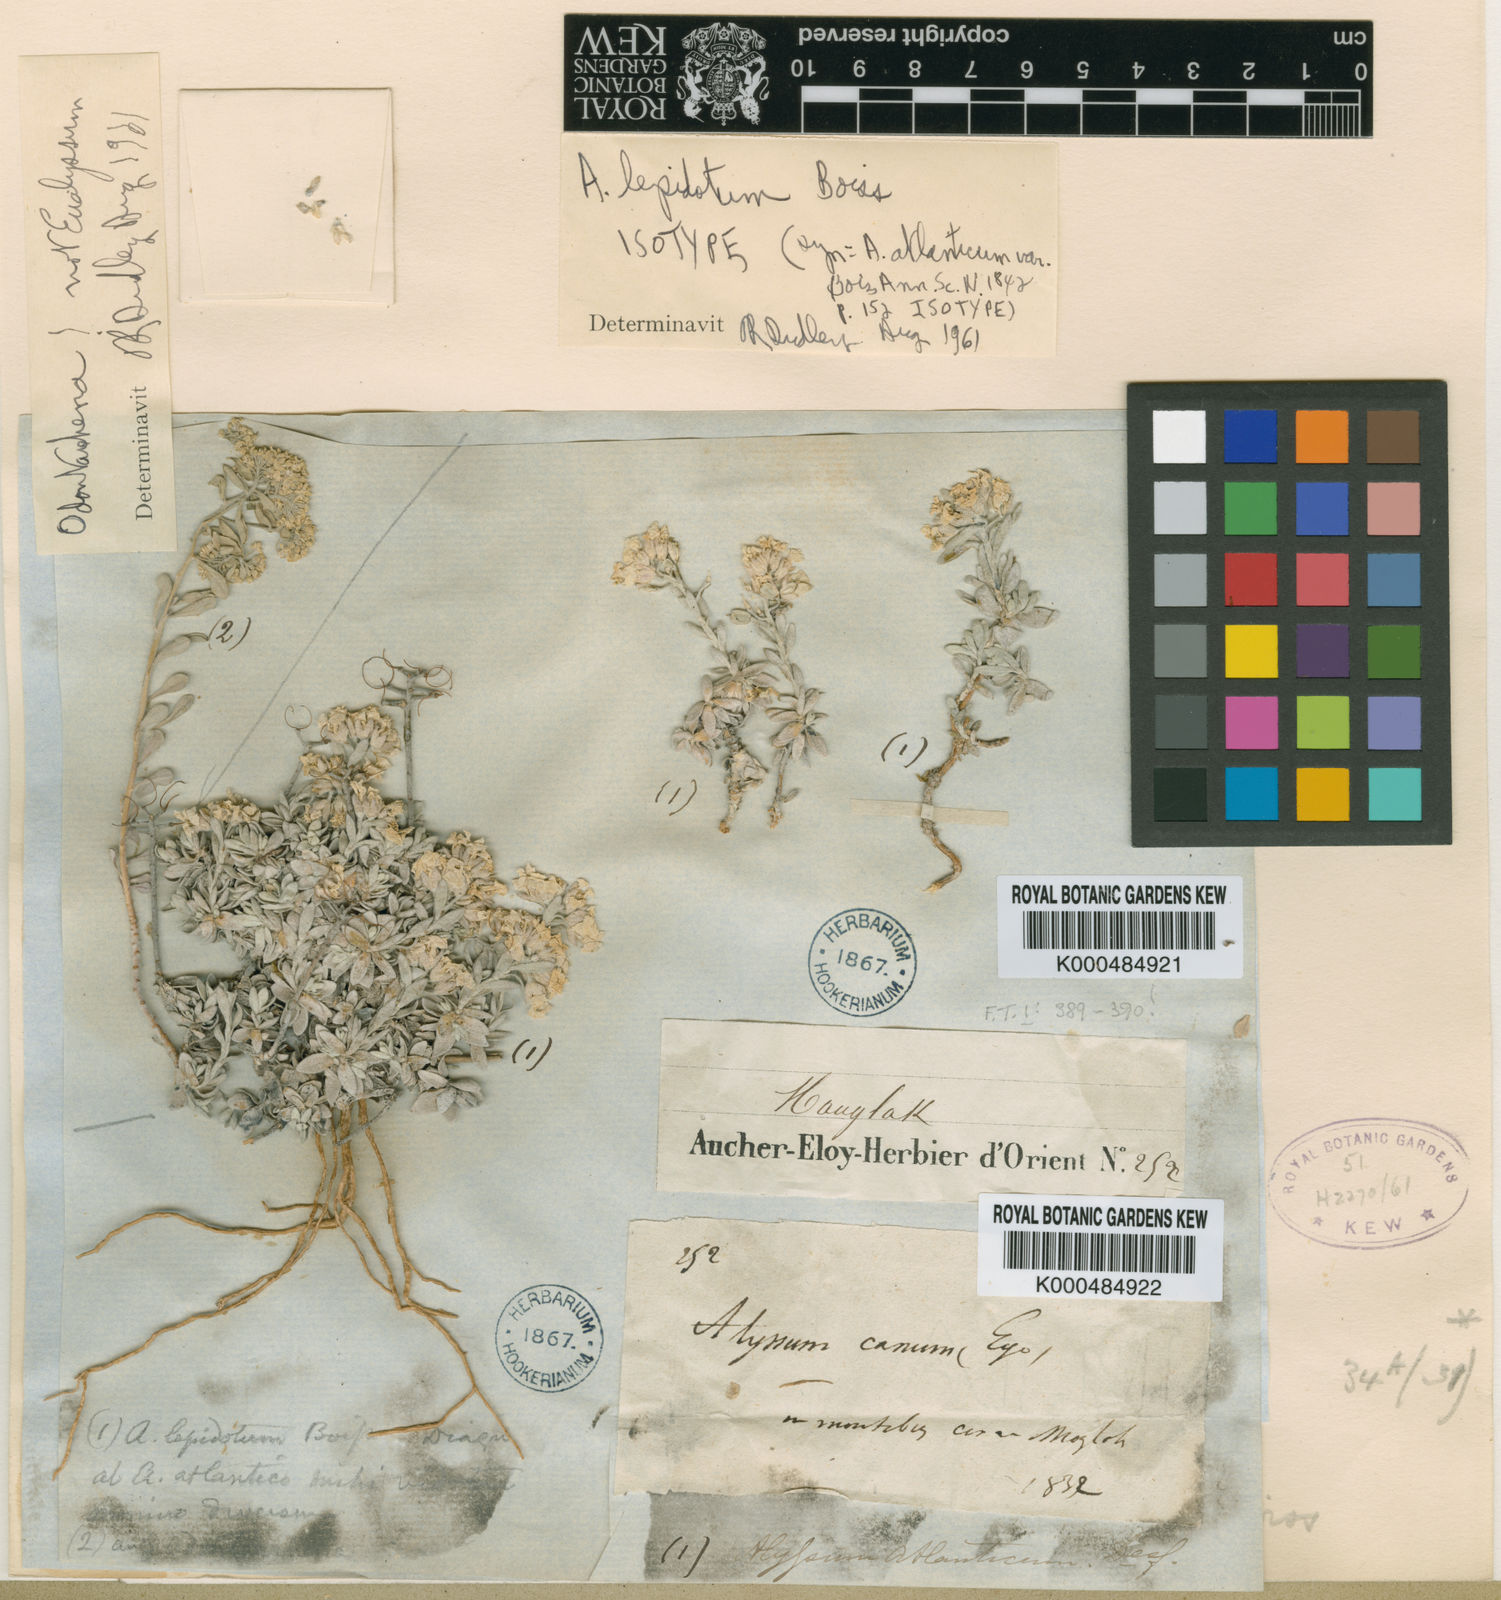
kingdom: Plantae
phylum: Tracheophyta
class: Magnoliopsida
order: Brassicales
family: Brassicaceae
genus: Alyssum
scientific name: Alyssum lepidotum
